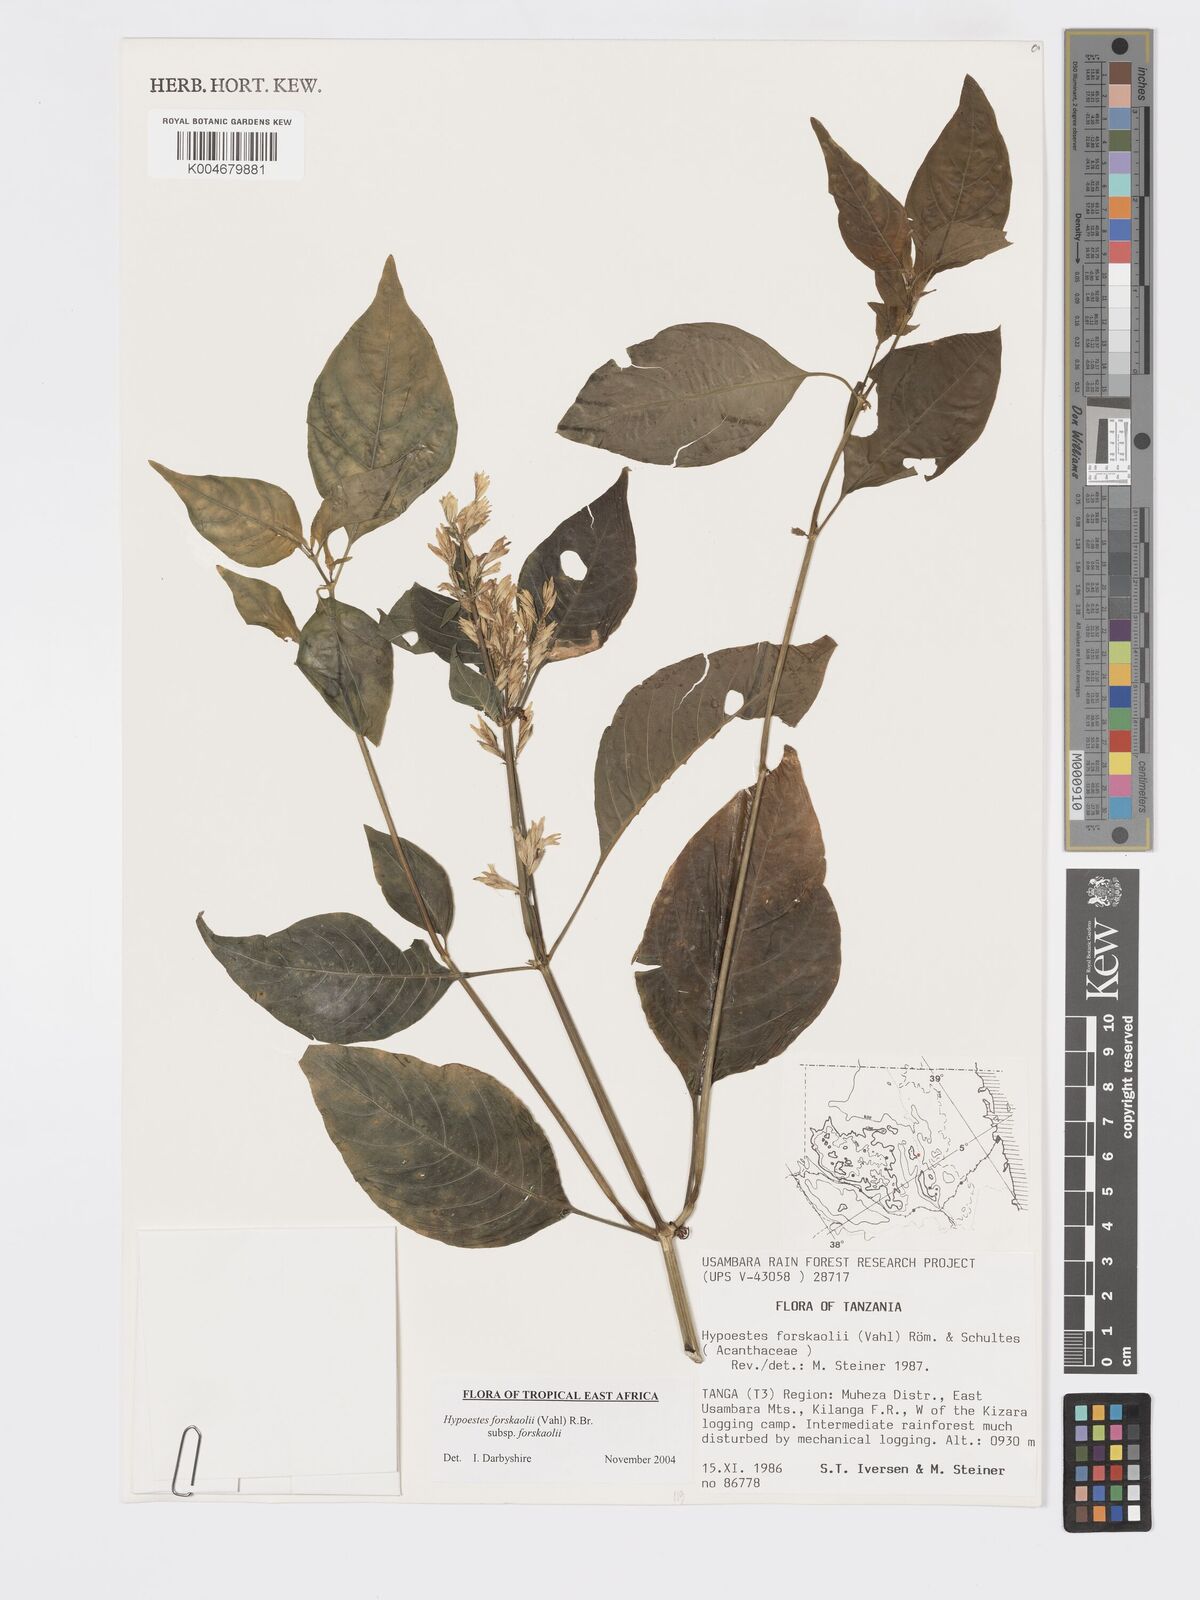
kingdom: Plantae
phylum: Tracheophyta
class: Magnoliopsida
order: Lamiales
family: Acanthaceae
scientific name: Acanthaceae
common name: Acanthaceae
